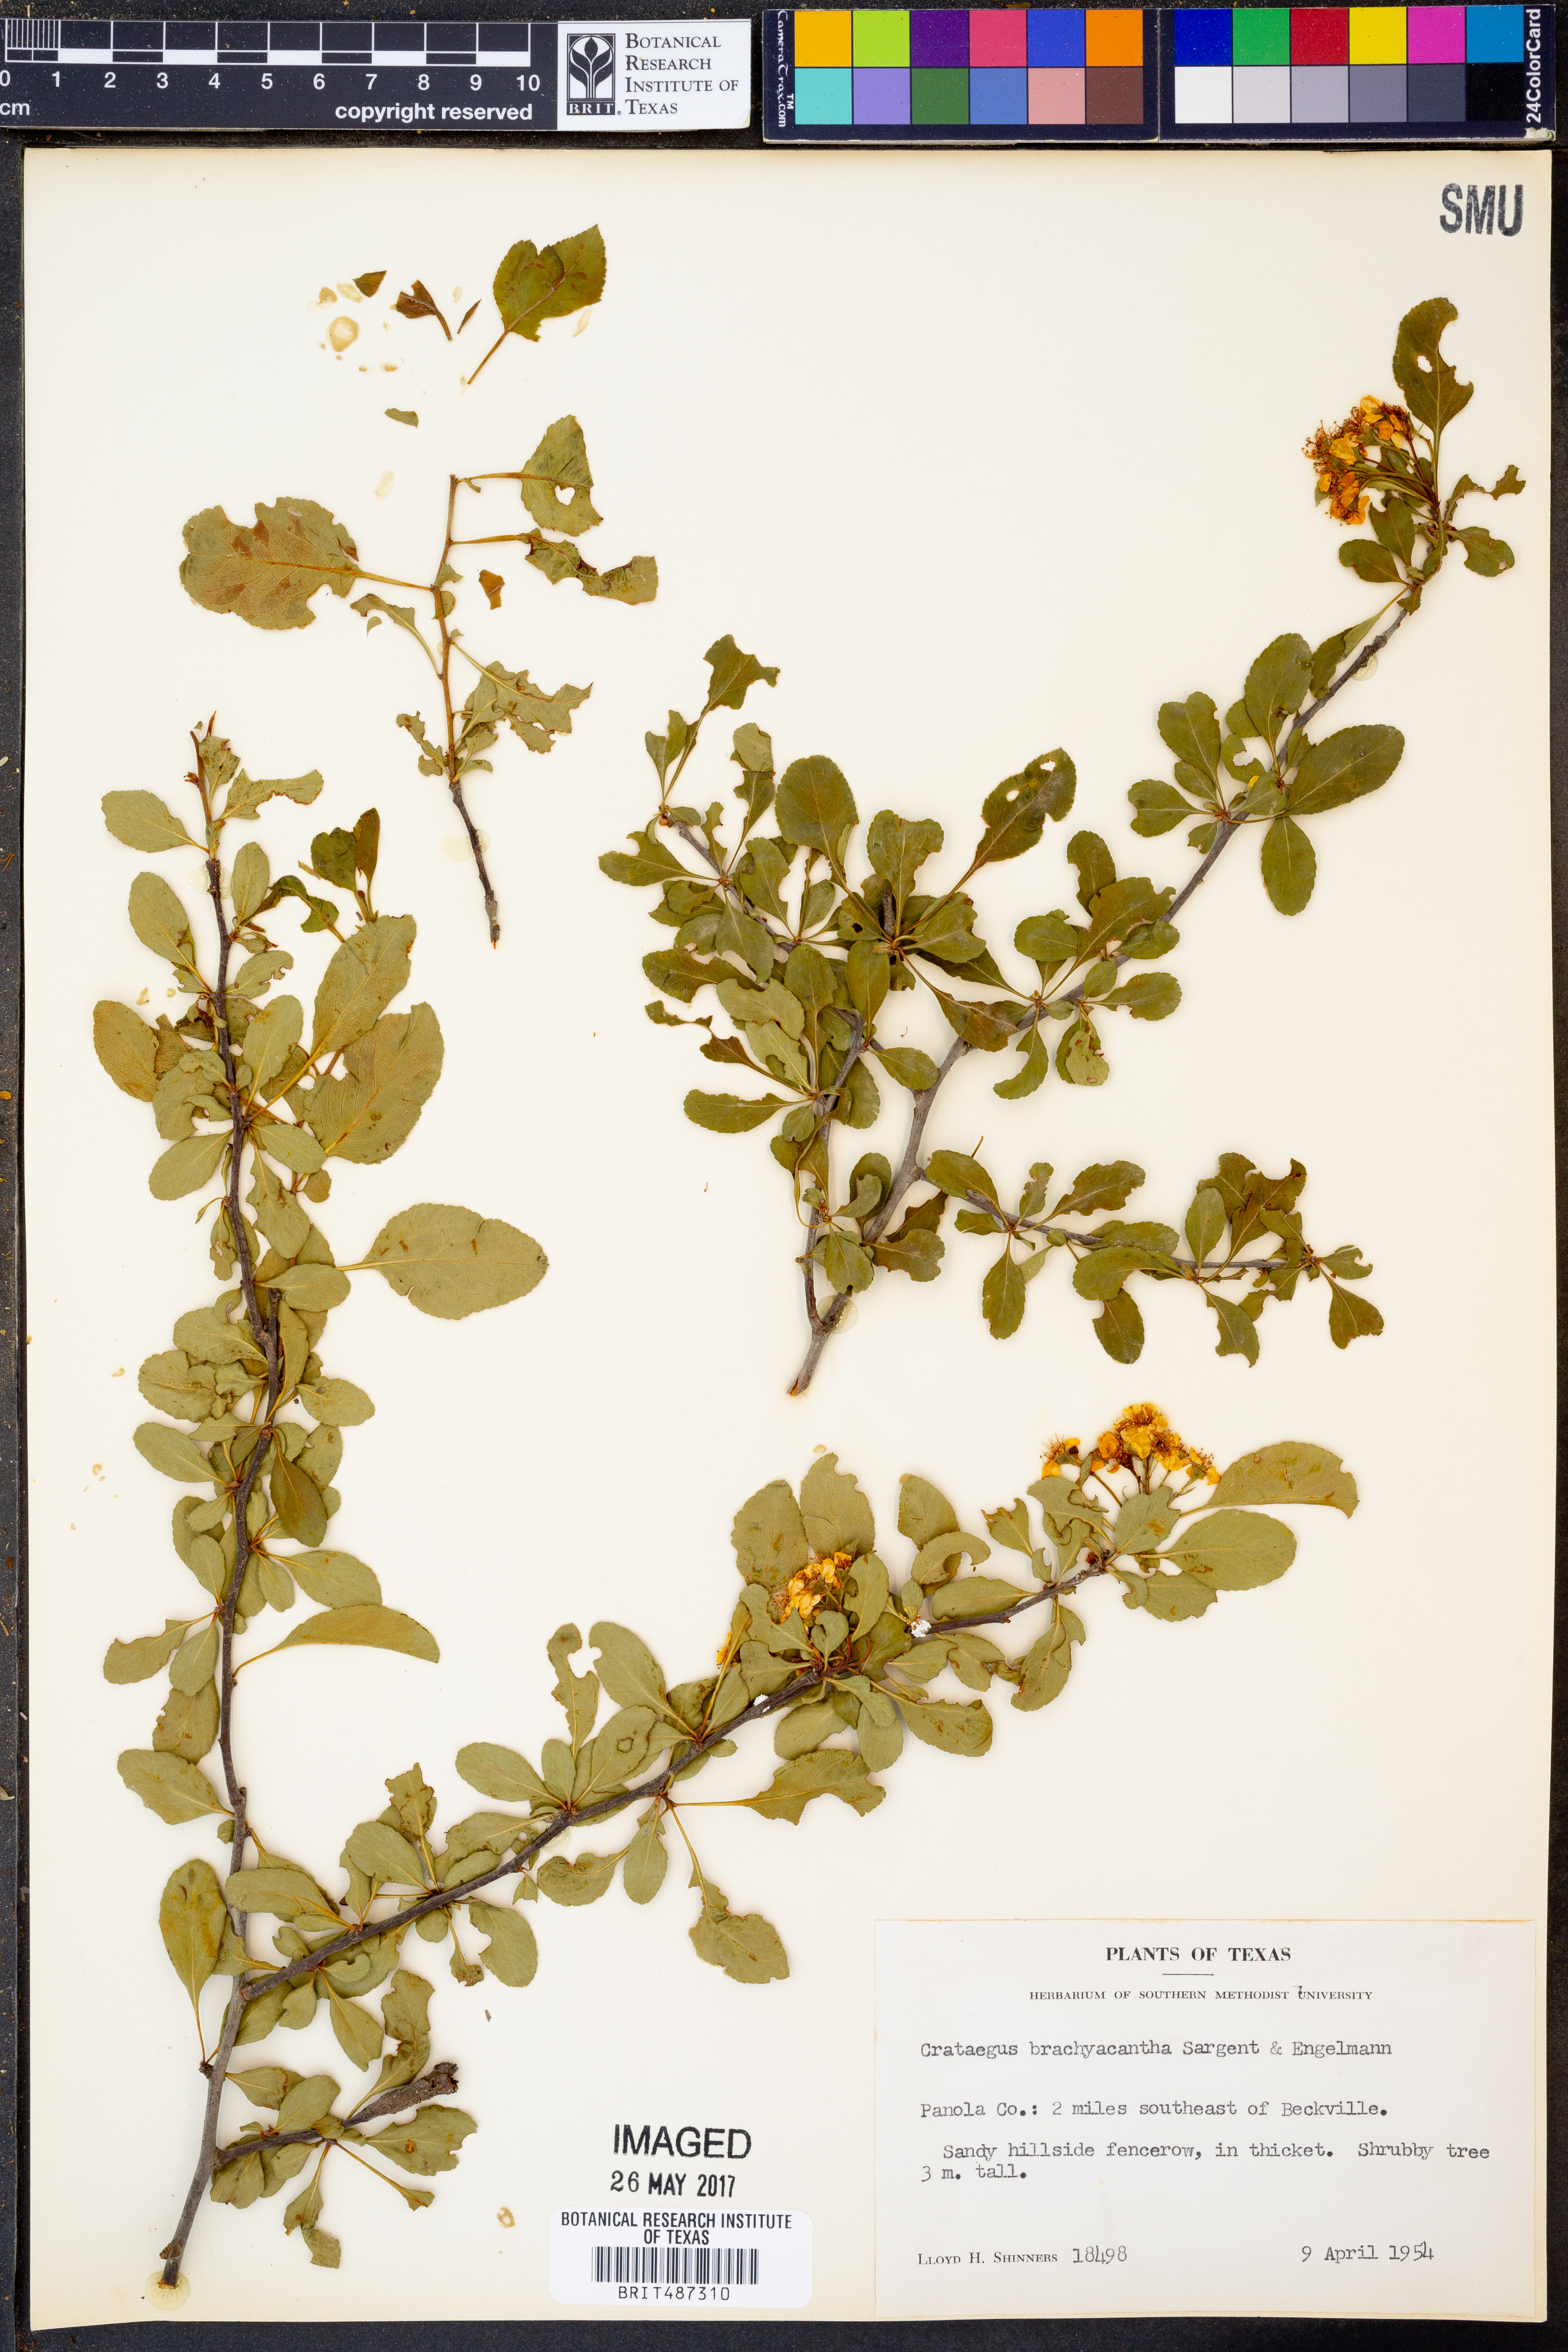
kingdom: Plantae
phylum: Tracheophyta
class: Magnoliopsida
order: Rosales
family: Rosaceae
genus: Crataegus
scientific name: Crataegus brachyacantha
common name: Blueberry-hawthorn
